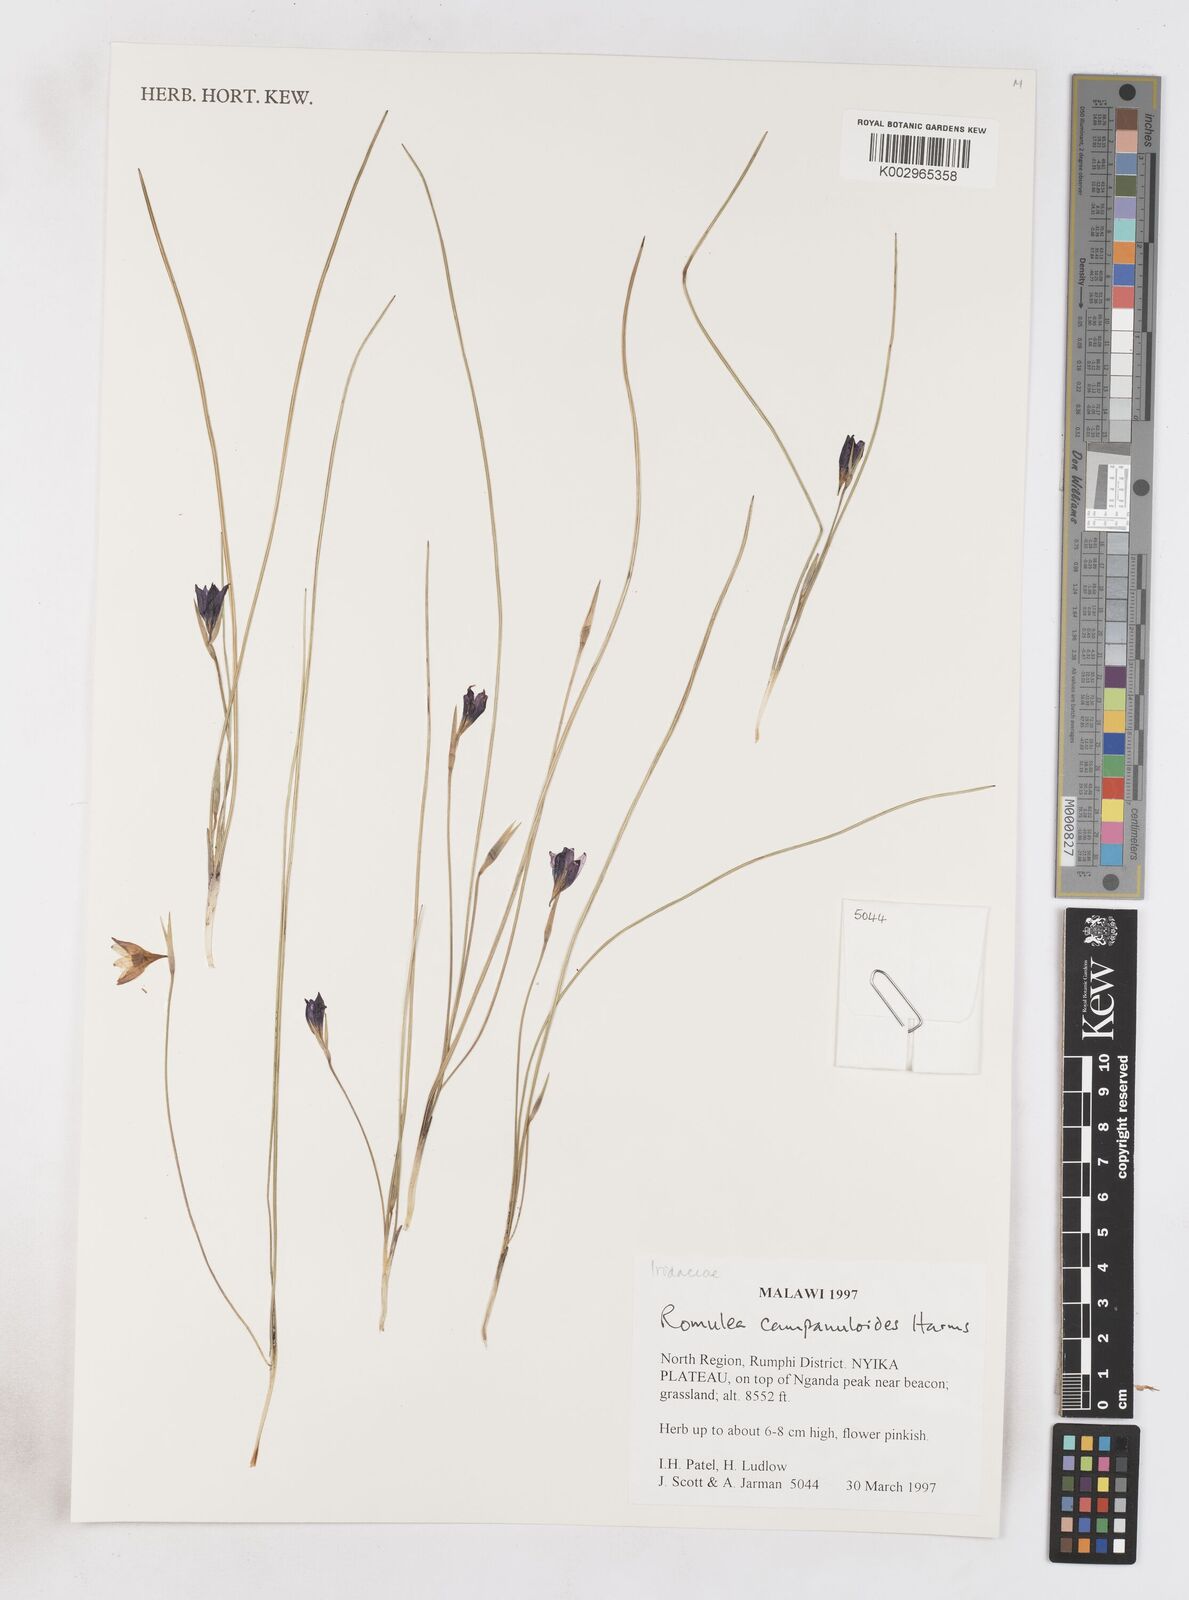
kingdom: Plantae
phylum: Tracheophyta
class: Liliopsida
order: Asparagales
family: Iridaceae
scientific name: Iridaceae
